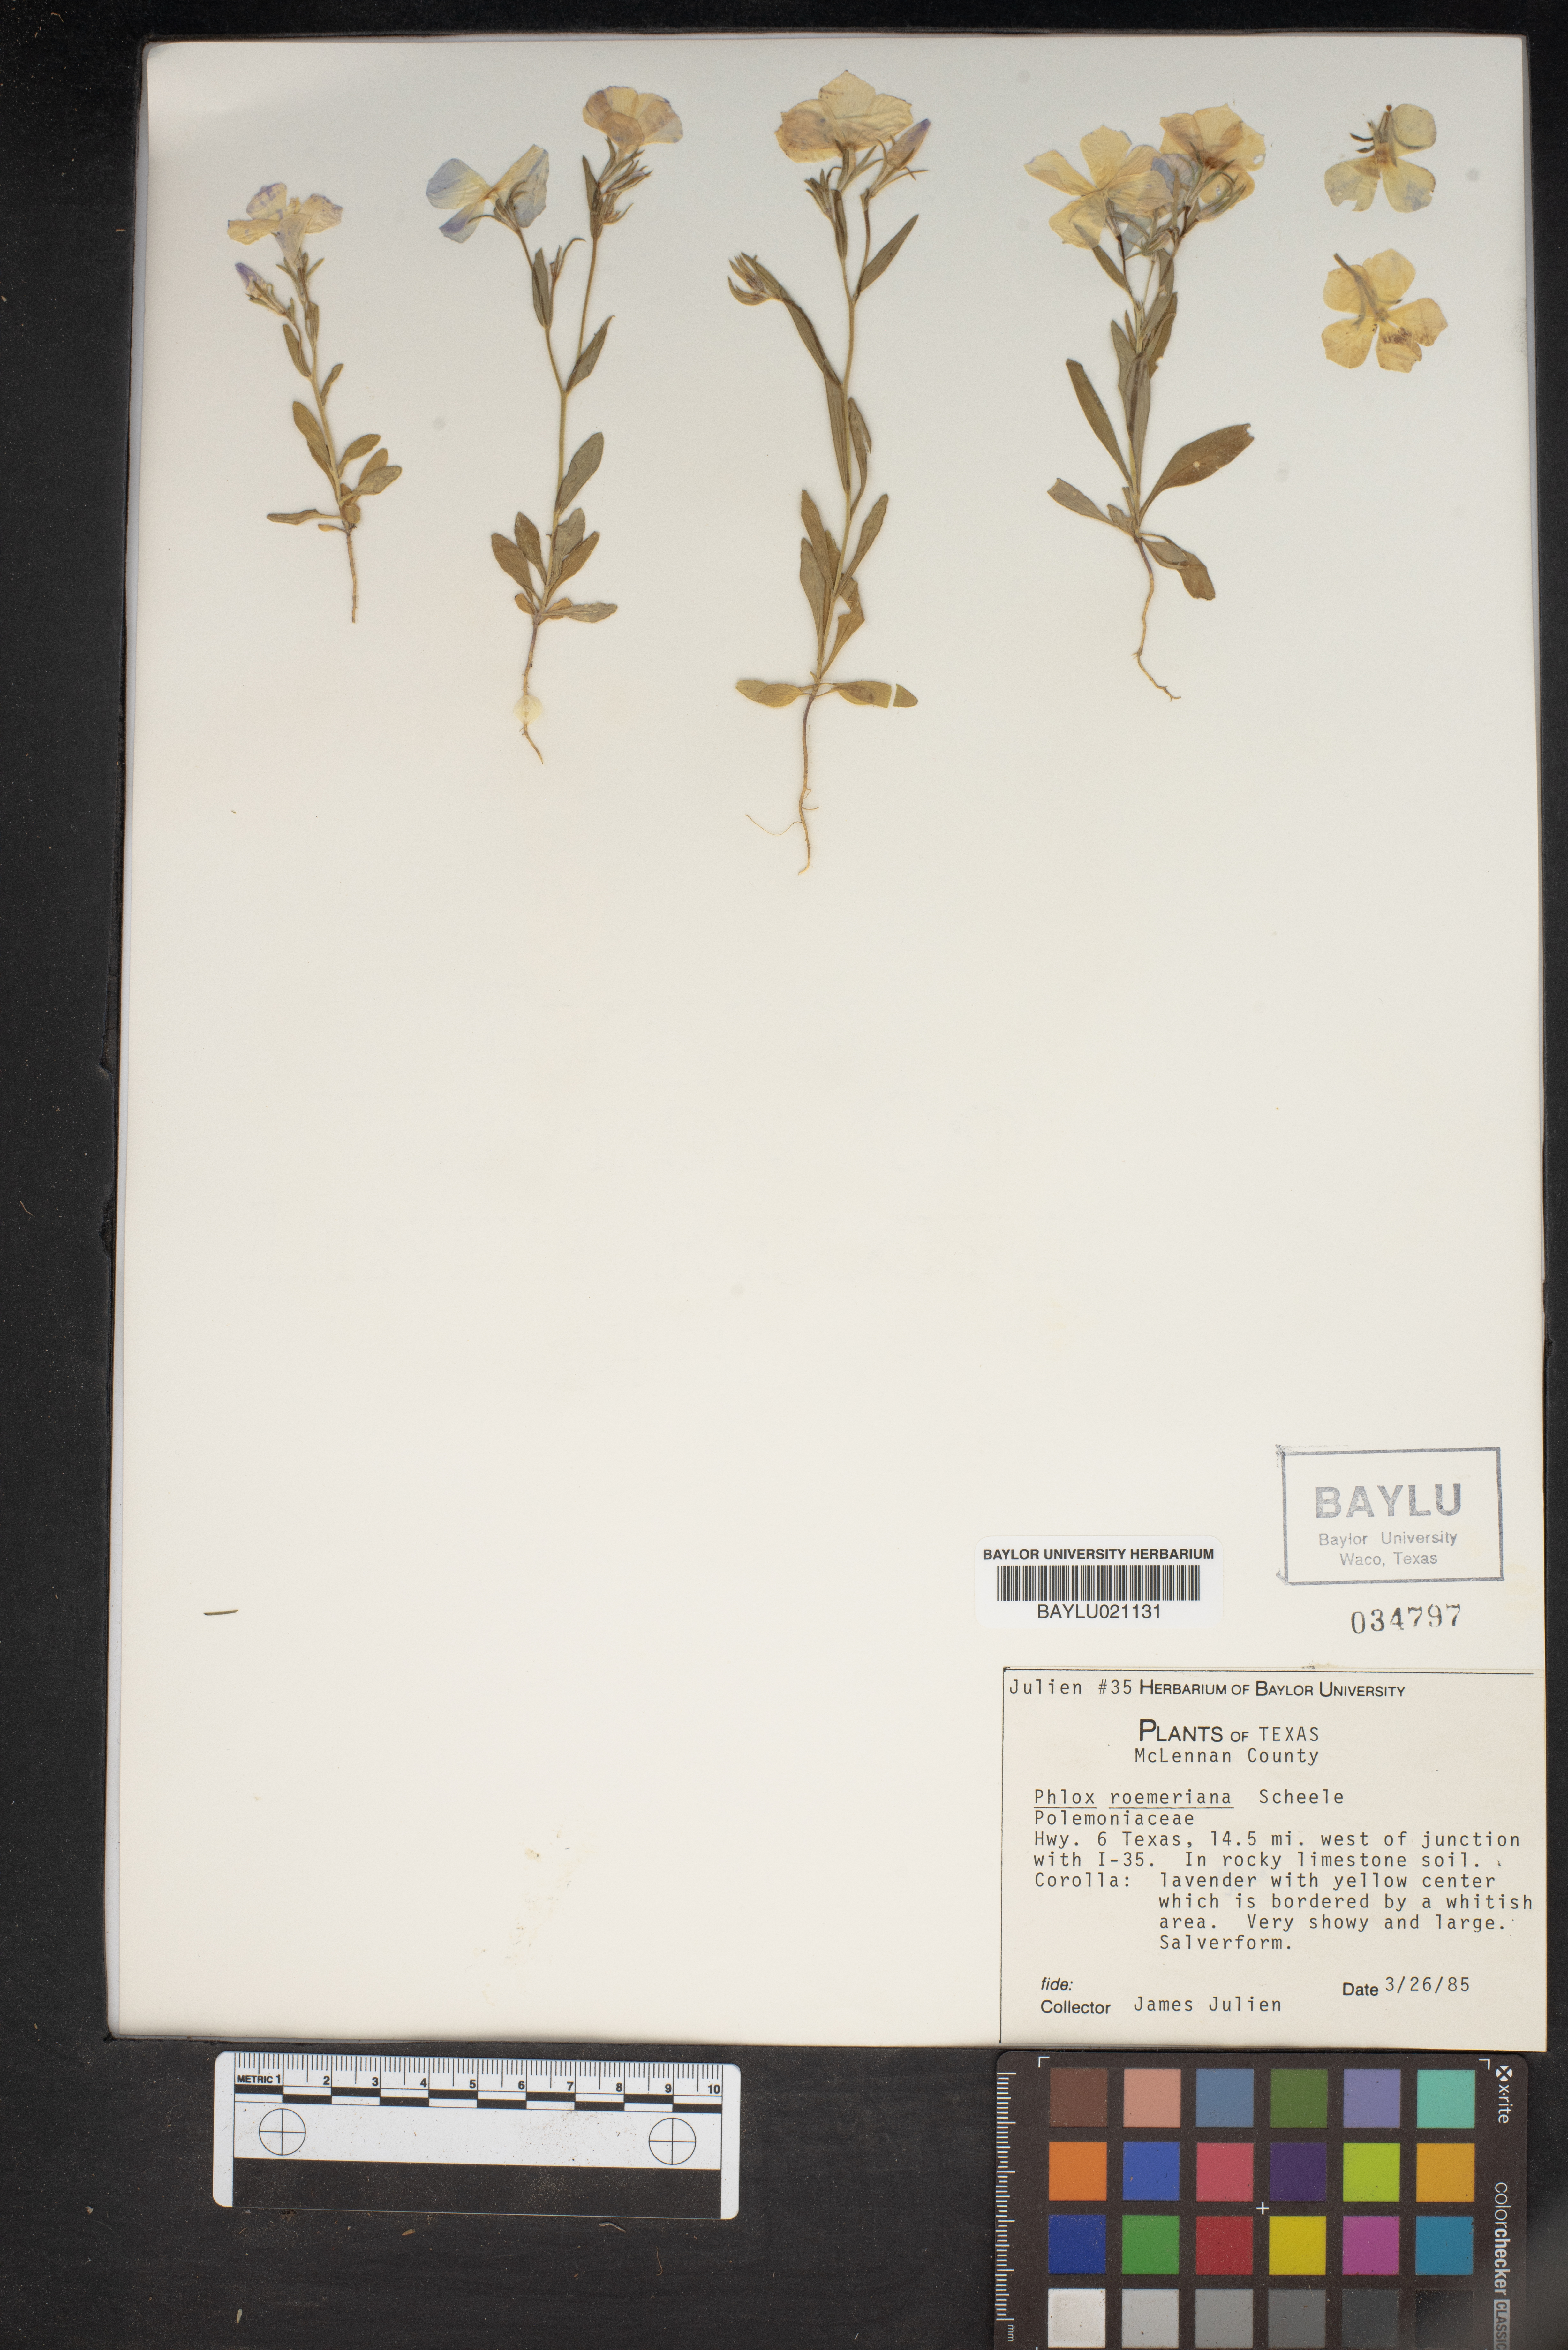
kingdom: Plantae
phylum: Tracheophyta
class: Magnoliopsida
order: Ericales
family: Polemoniaceae
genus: Phlox
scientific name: Phlox roemeriana
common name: Roemer's phlox
